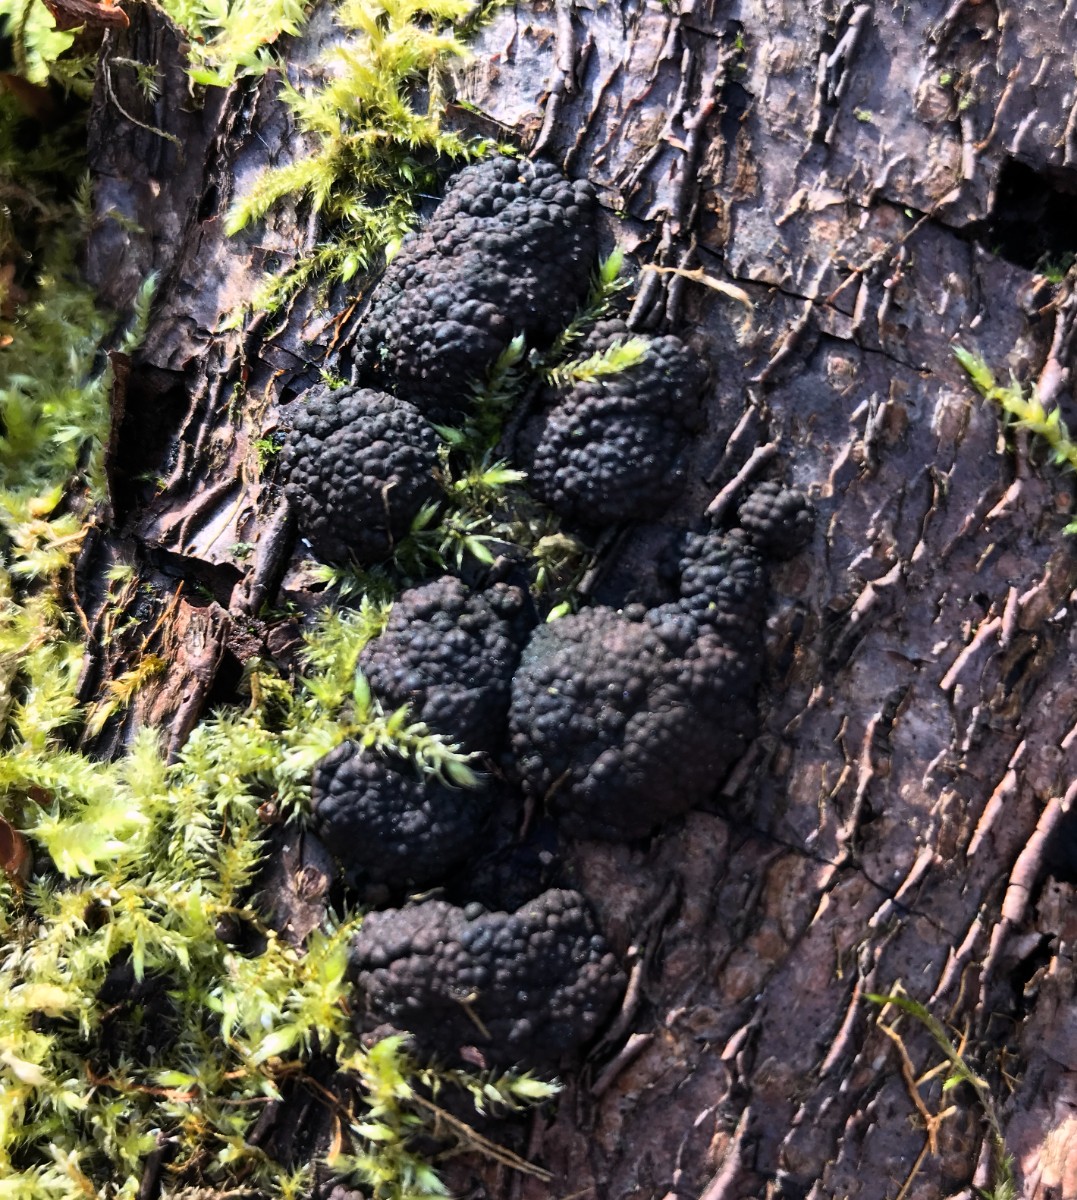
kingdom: Fungi
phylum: Ascomycota
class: Sordariomycetes
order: Xylariales
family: Hypoxylaceae
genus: Hypoxylon
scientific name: Hypoxylon fragiforme
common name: kuljordbær
